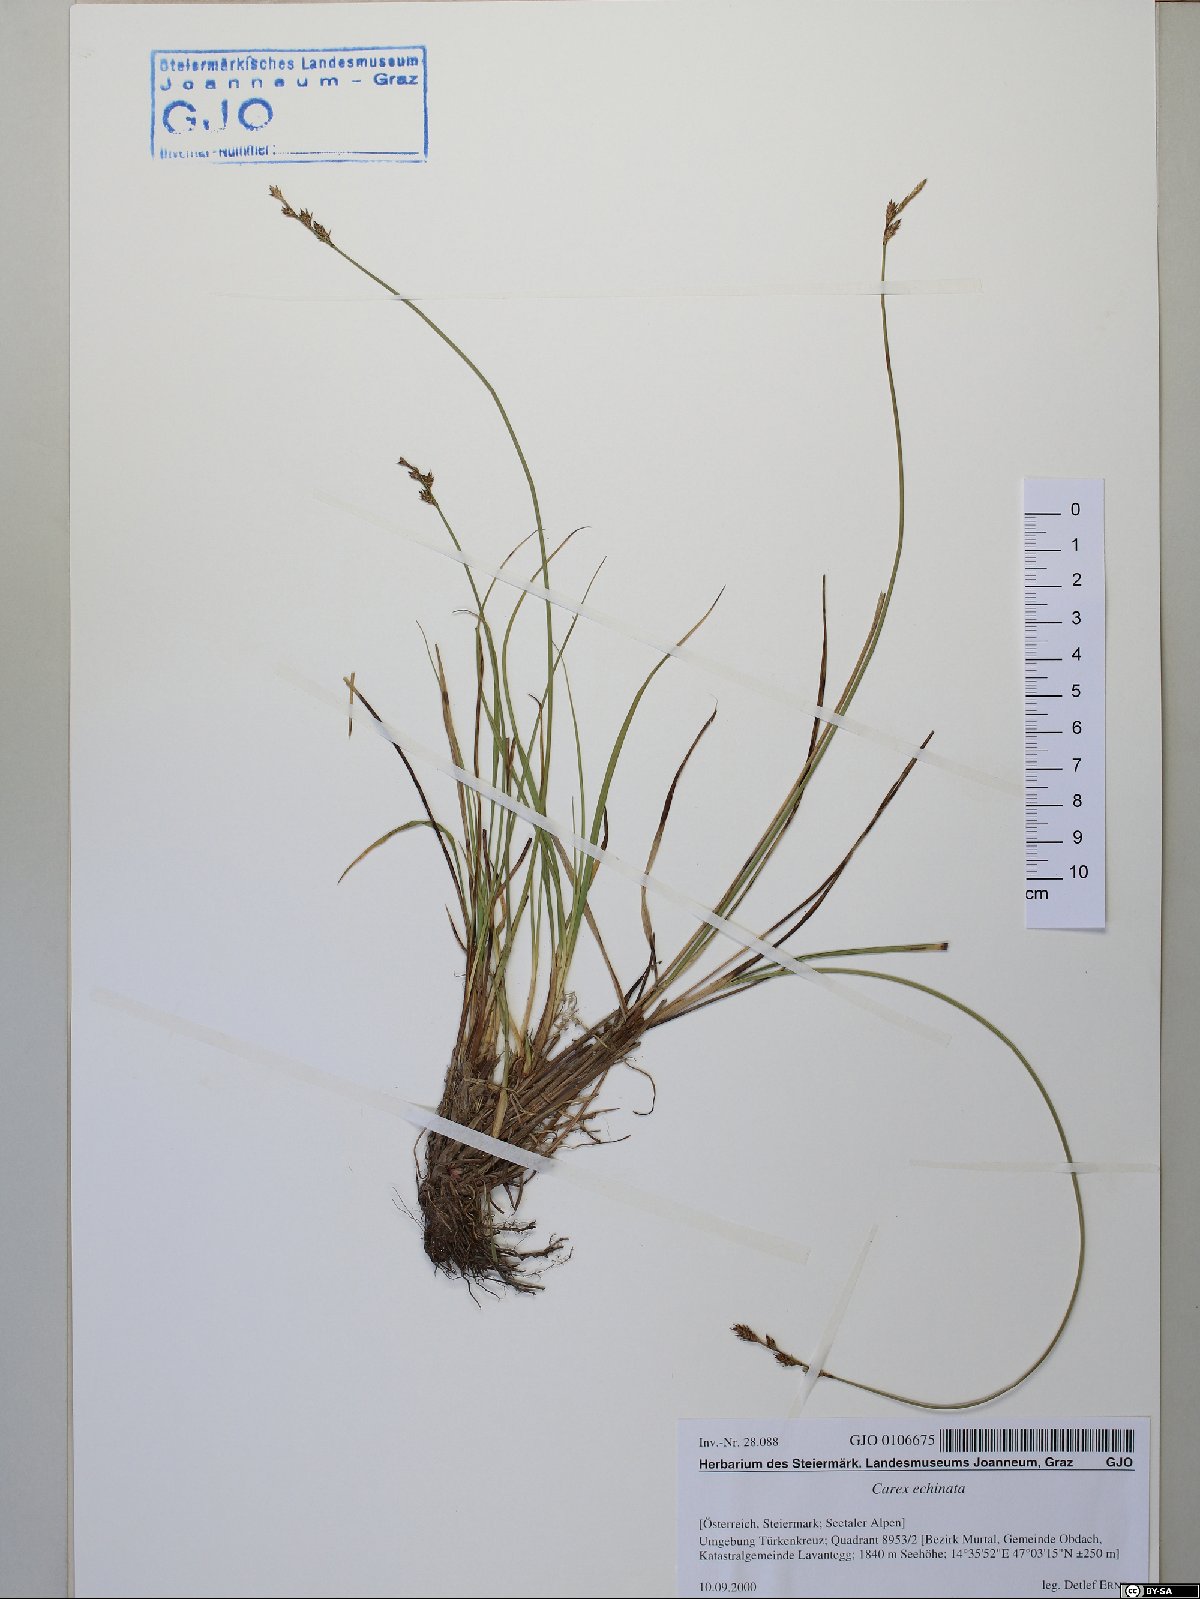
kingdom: Plantae
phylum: Tracheophyta
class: Liliopsida
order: Poales
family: Cyperaceae
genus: Carex
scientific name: Carex echinata
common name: Star sedge
